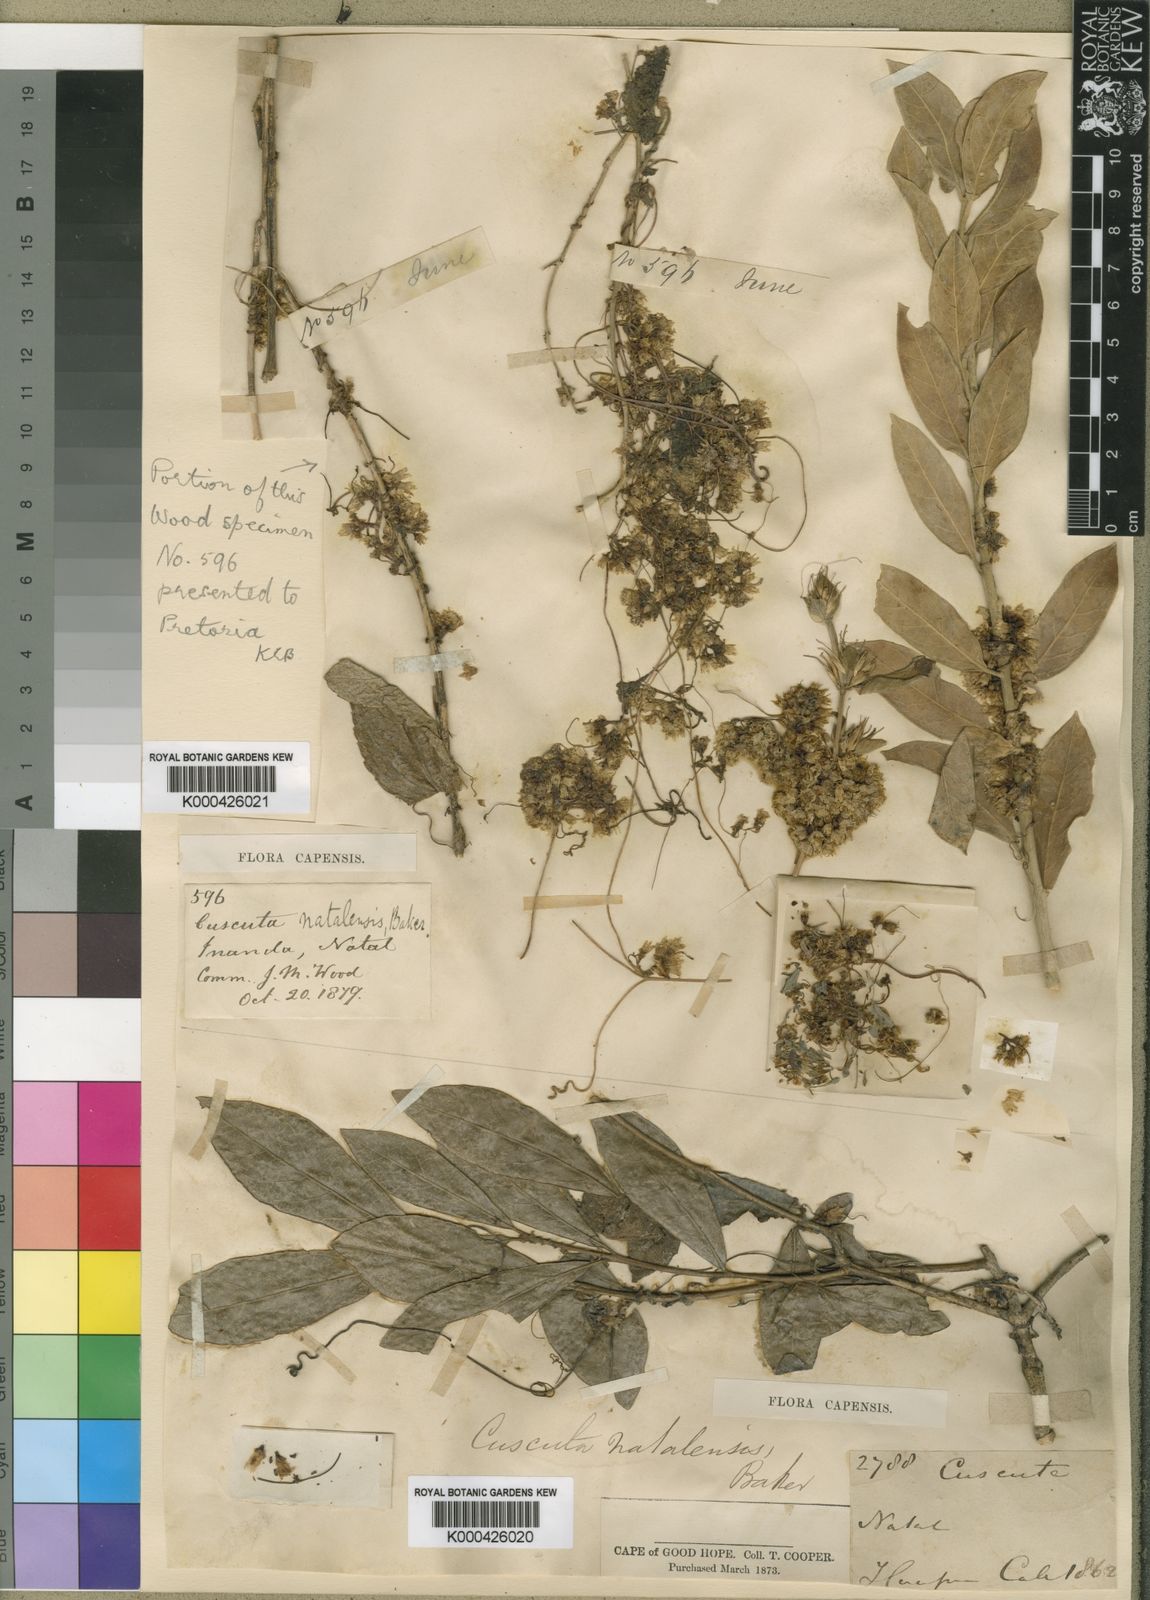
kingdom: Plantae
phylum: Tracheophyta
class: Magnoliopsida
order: Solanales
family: Convolvulaceae
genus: Cuscuta
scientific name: Cuscuta natalensis
